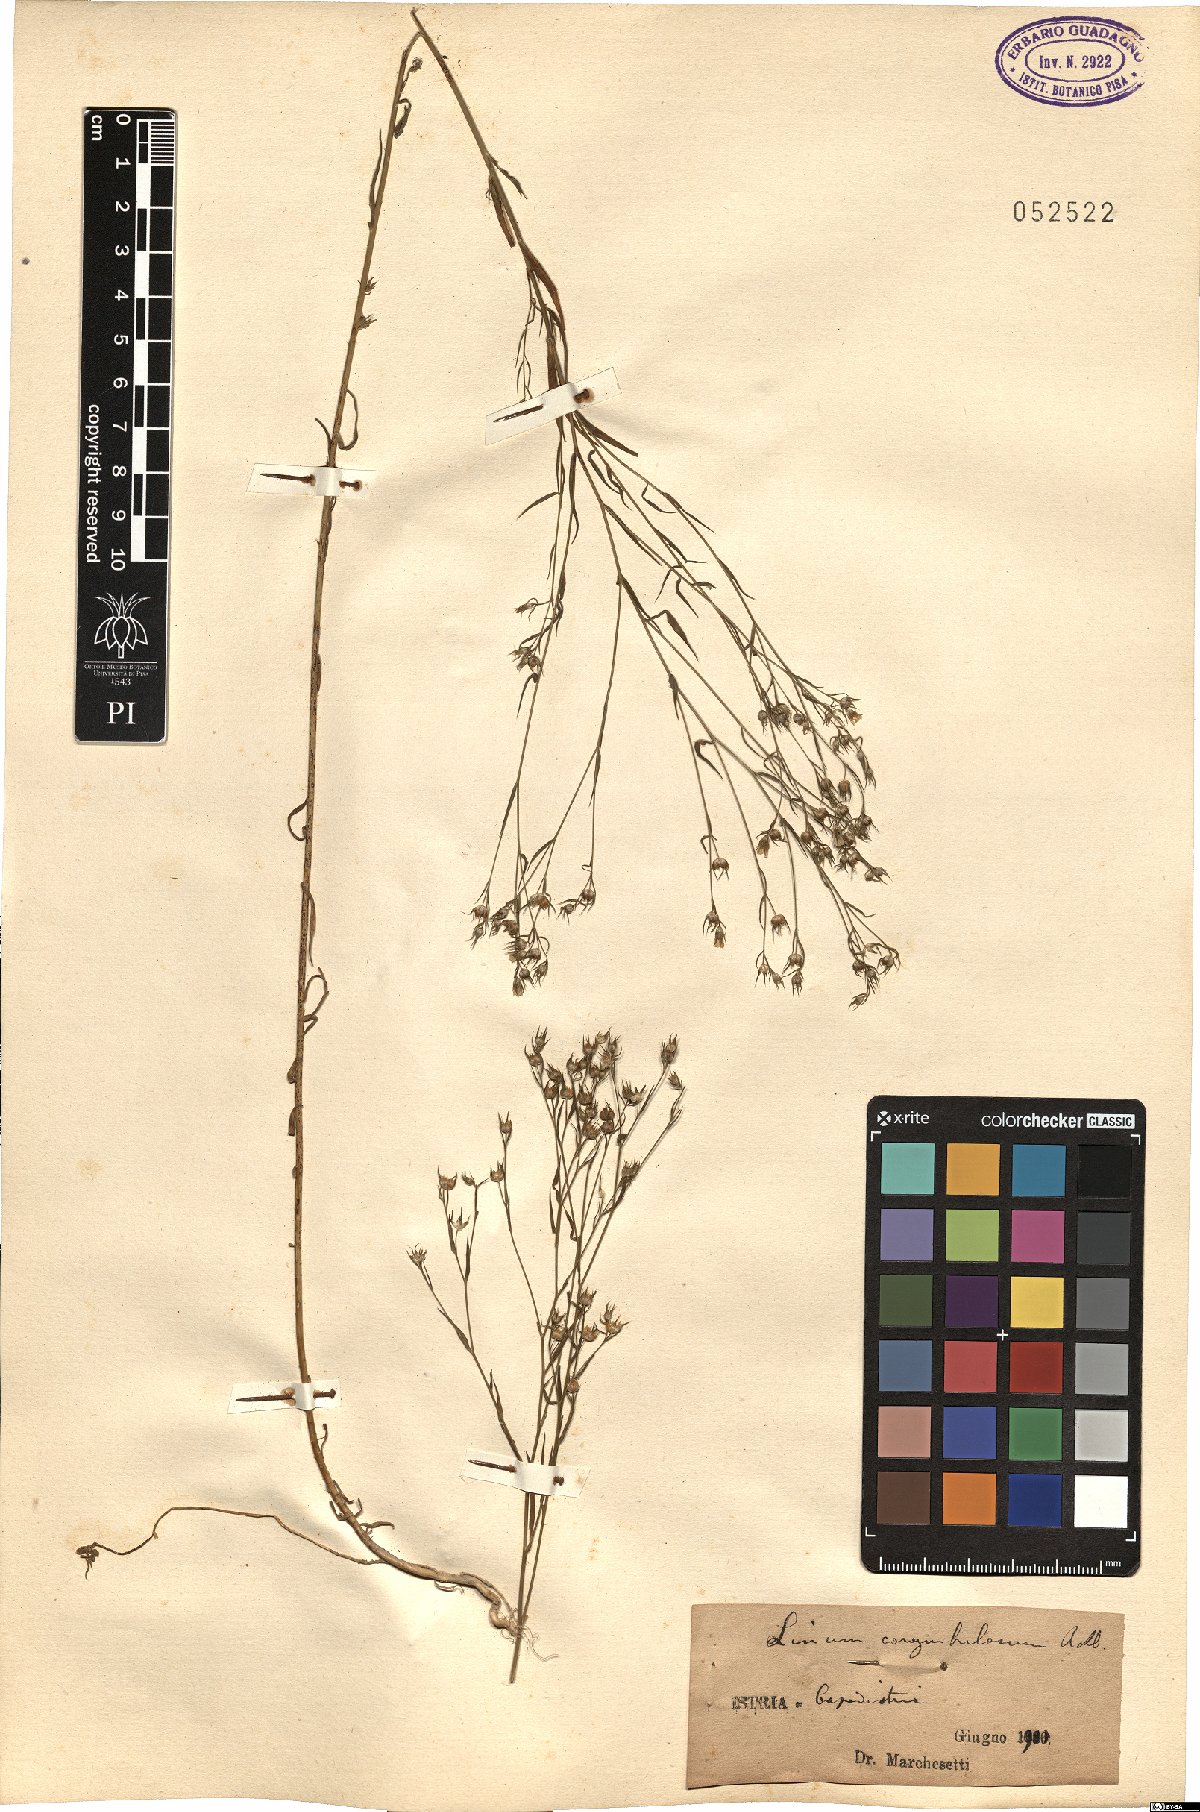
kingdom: Plantae
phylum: Tracheophyta
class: Magnoliopsida
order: Malpighiales
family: Linaceae
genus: Linum
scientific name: Linum corymbulosum
